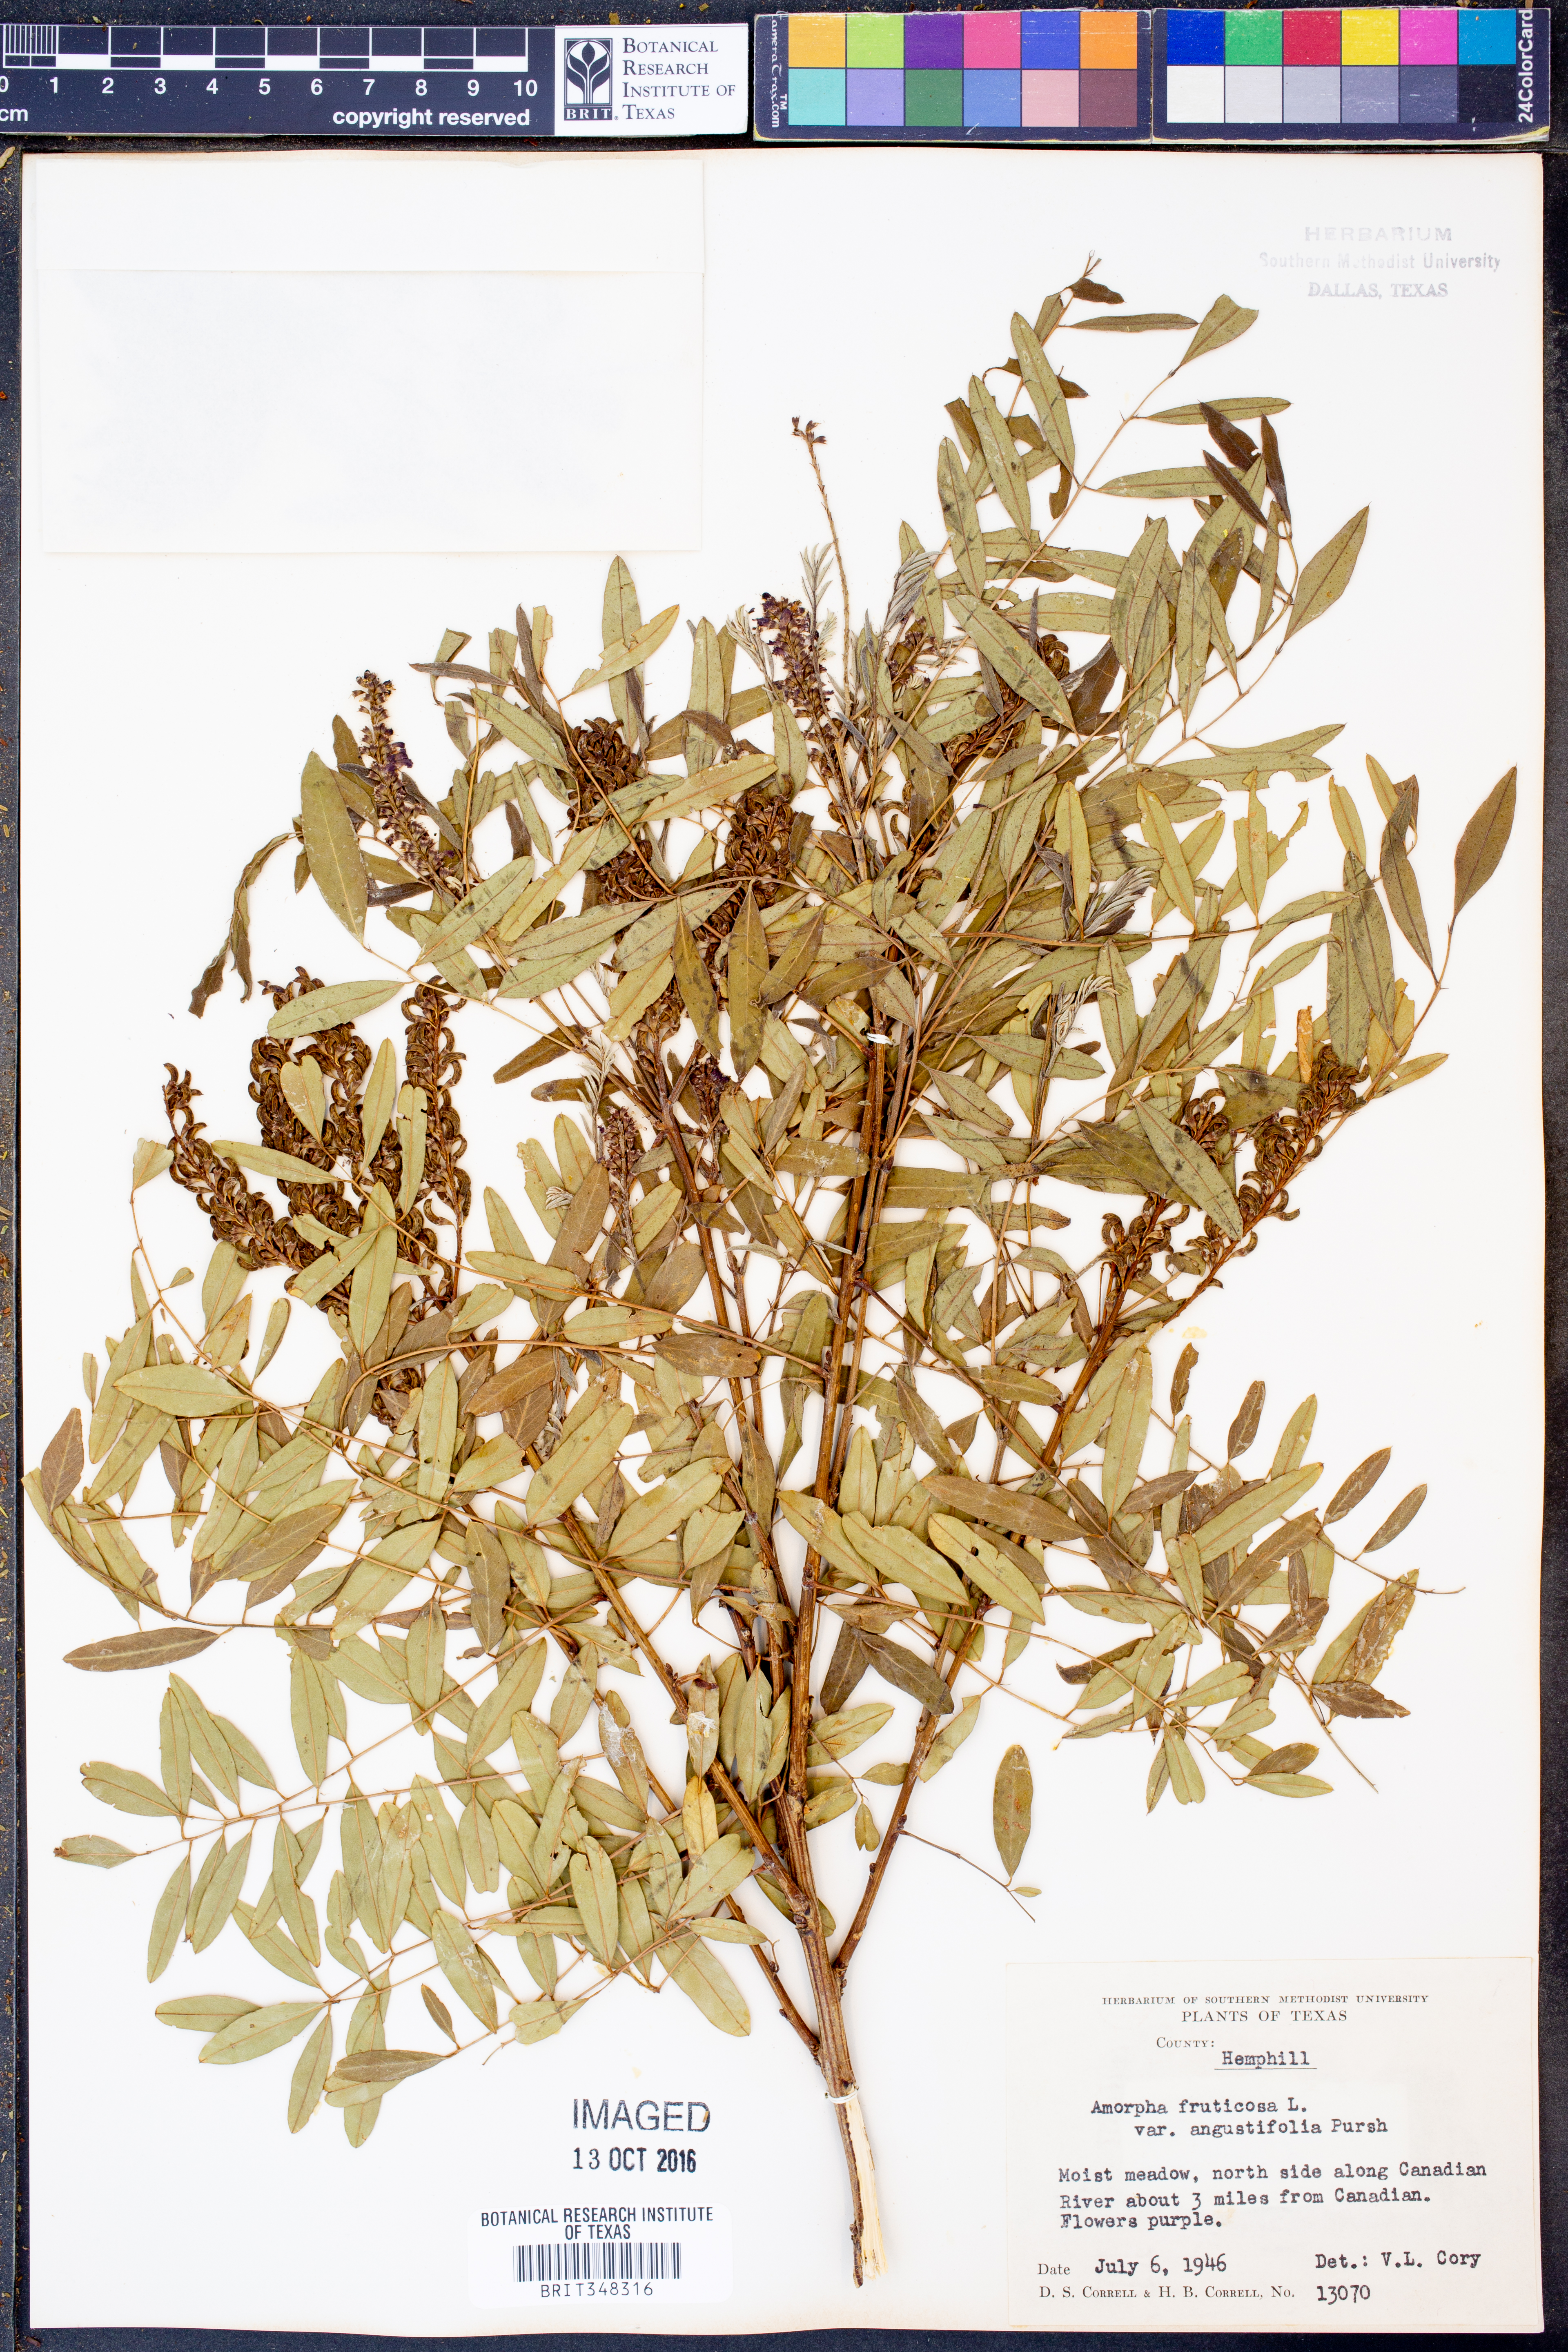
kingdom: Plantae
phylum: Tracheophyta
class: Magnoliopsida
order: Fabales
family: Fabaceae
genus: Amorpha
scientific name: Amorpha fruticosa
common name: False indigo
